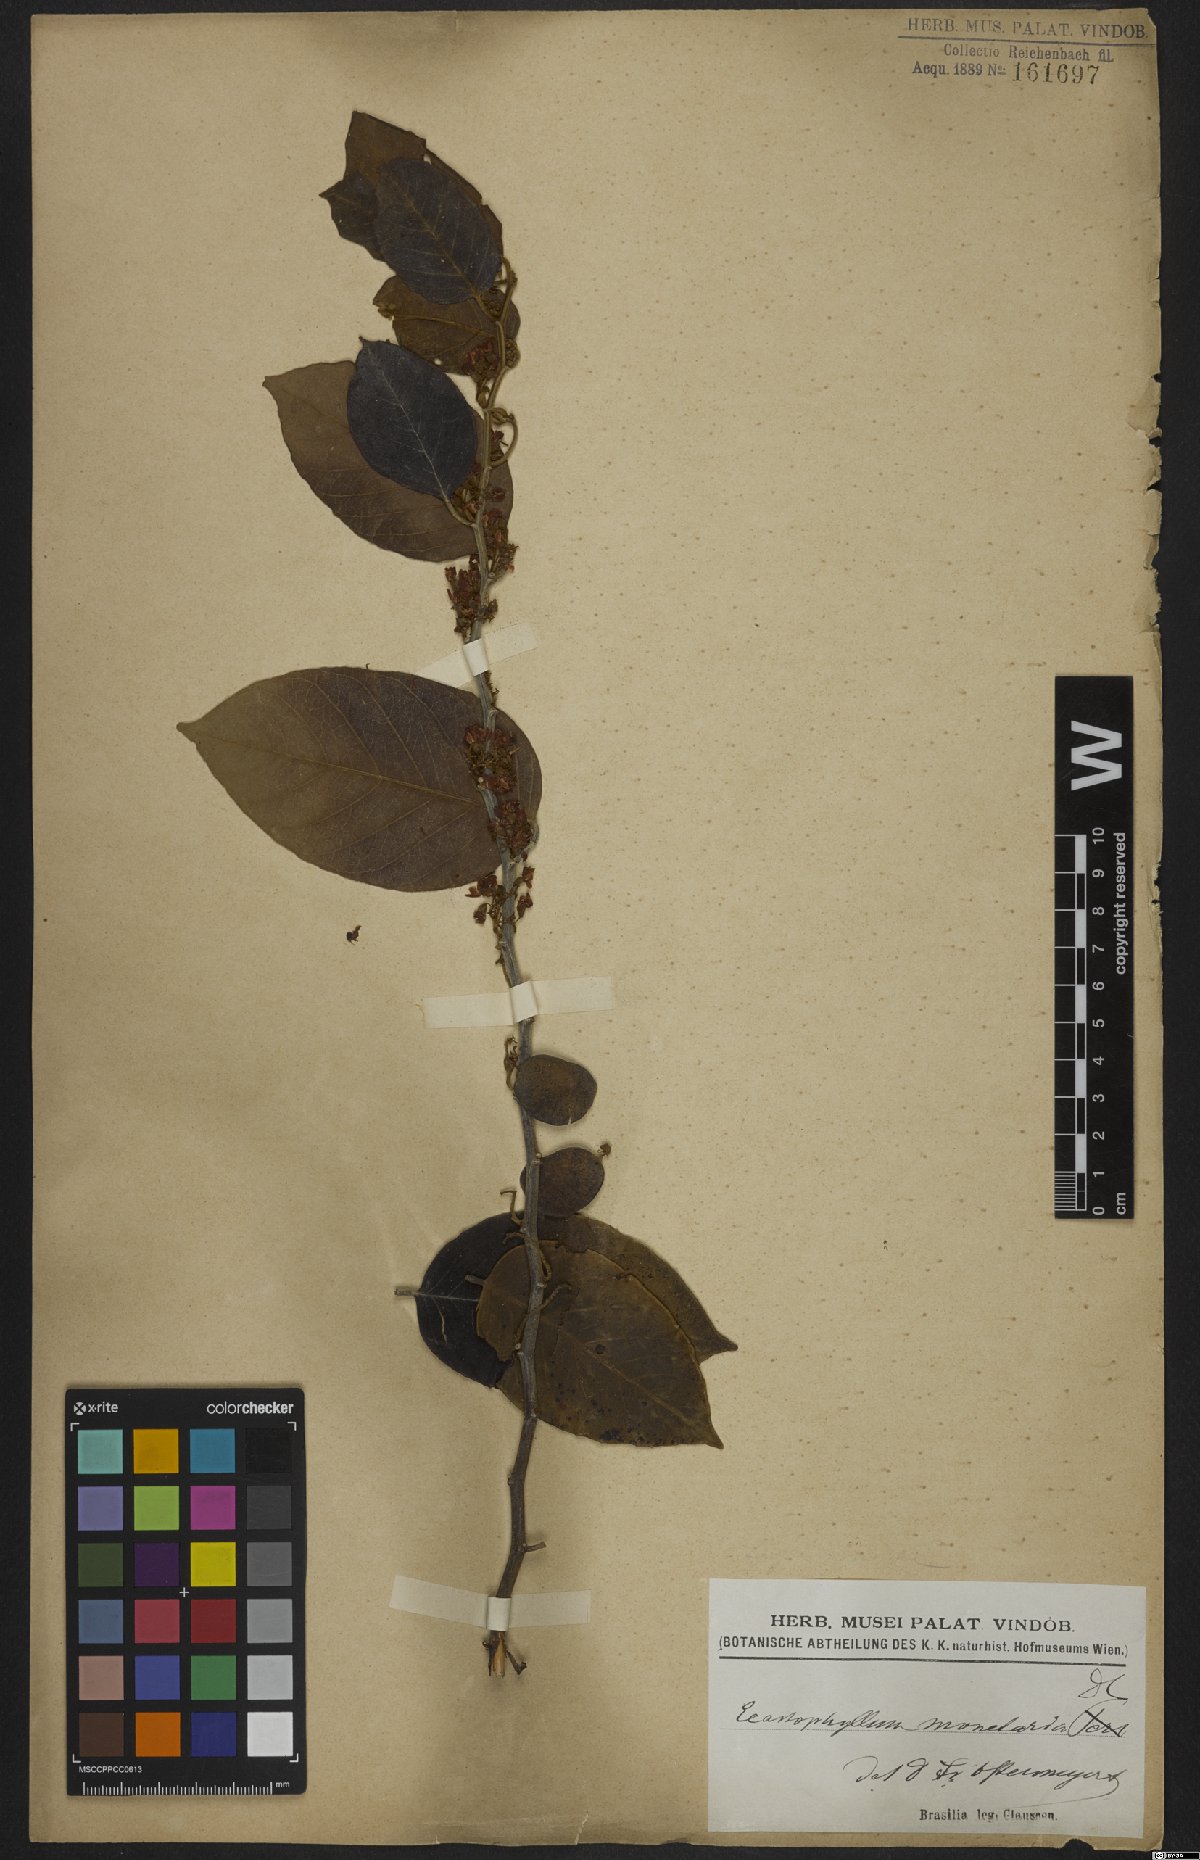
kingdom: Plantae
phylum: Tracheophyta
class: Magnoliopsida
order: Fabales
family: Fabaceae
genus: Dalbergia
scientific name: Dalbergia ovalis
